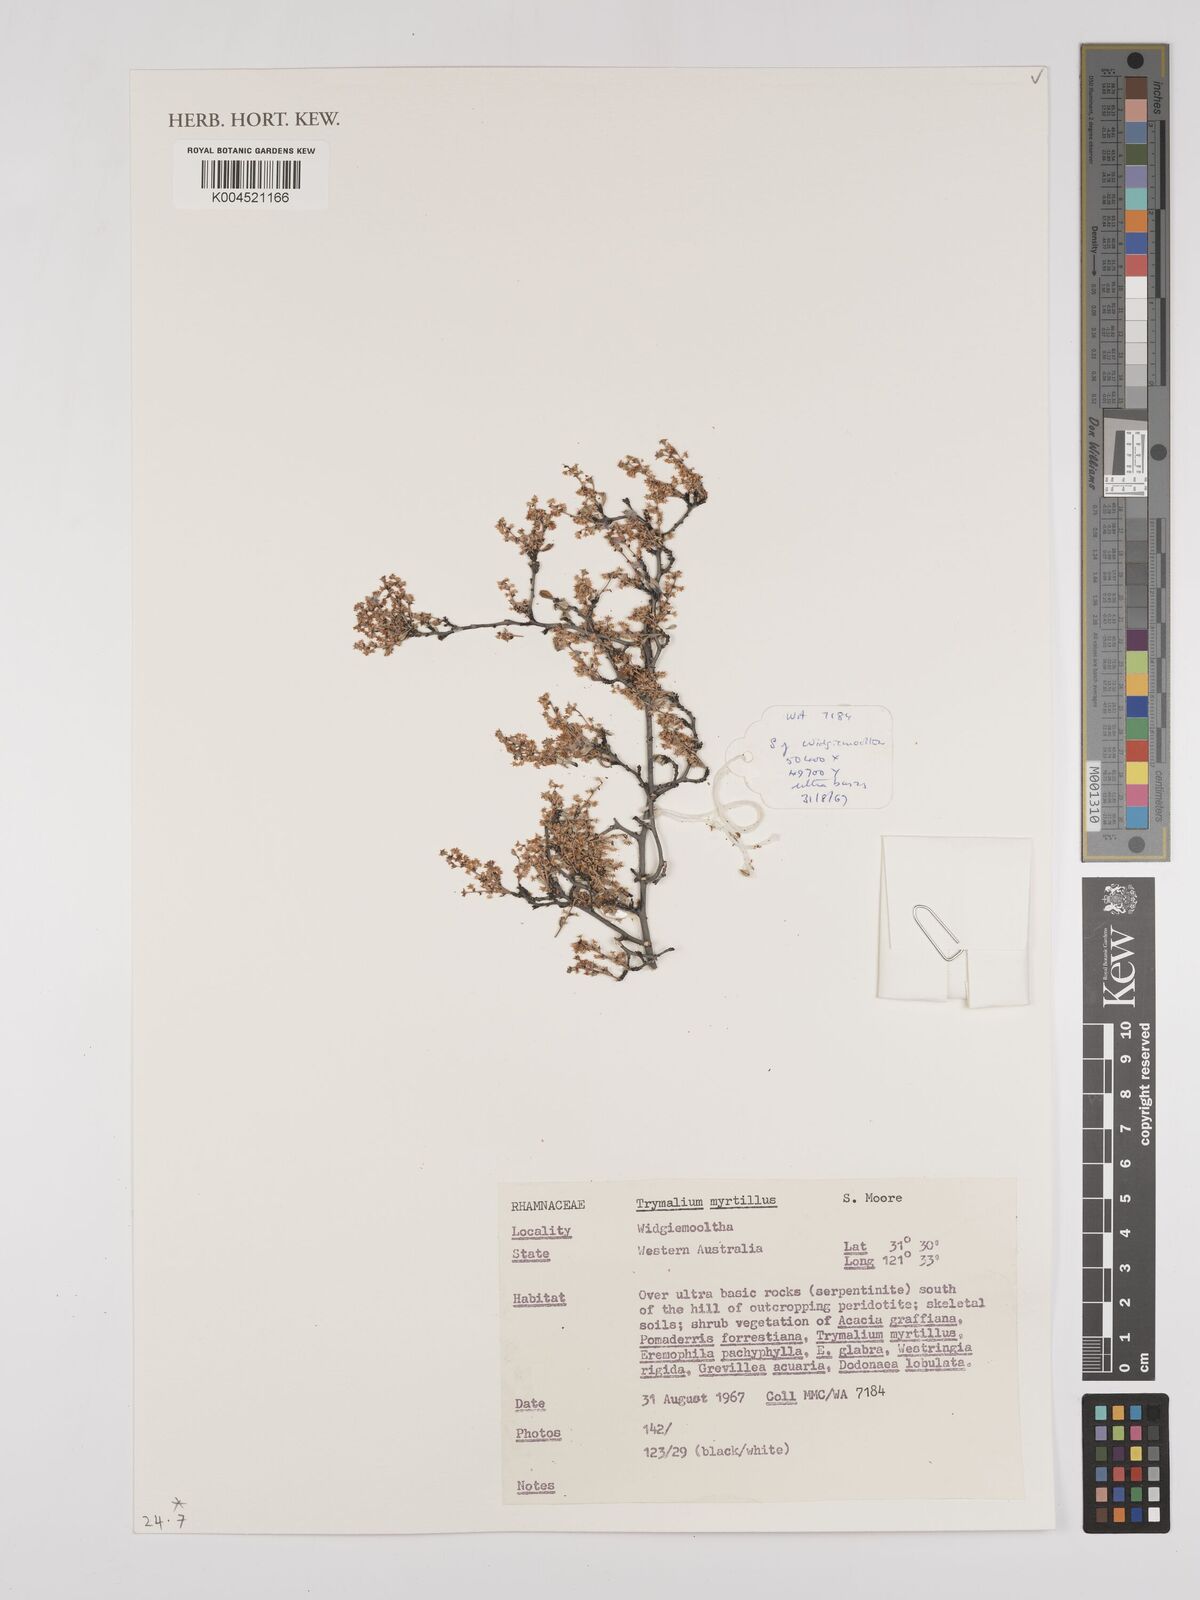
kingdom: Plantae
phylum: Tracheophyta
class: Magnoliopsida
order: Rosales
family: Rhamnaceae
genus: Trymalium
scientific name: Trymalium myrtillus
